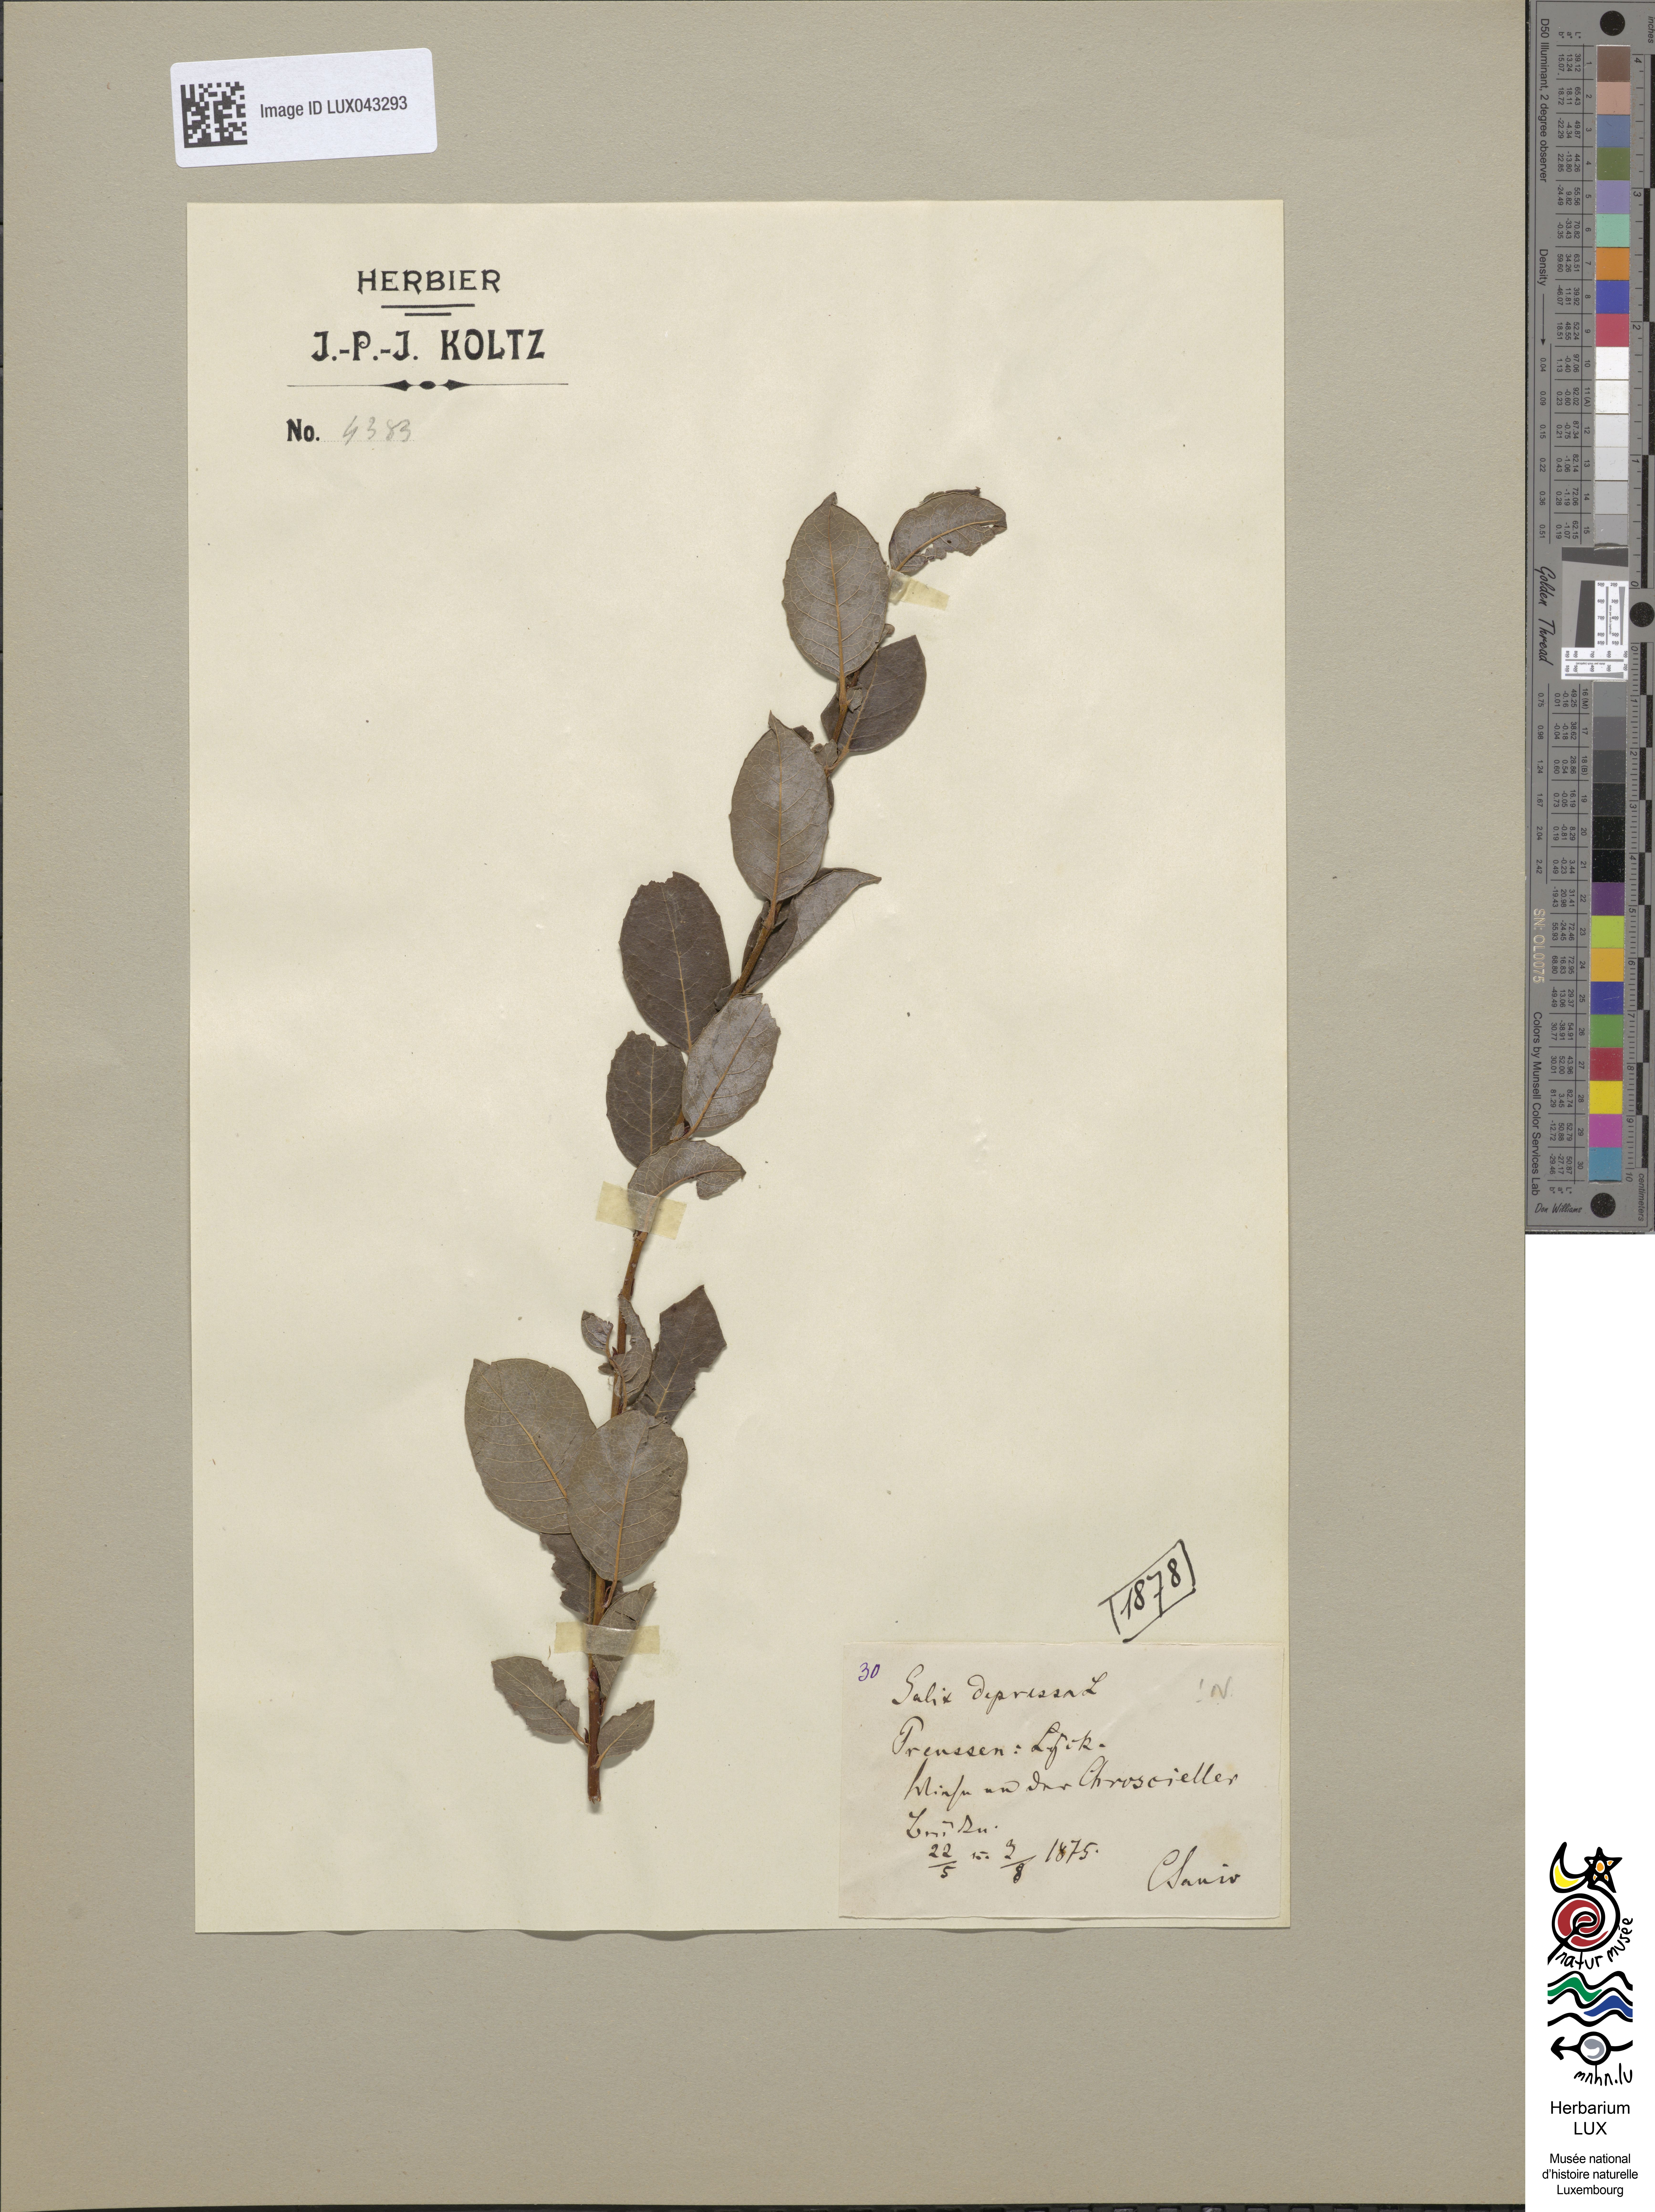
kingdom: Plantae
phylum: Tracheophyta
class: Magnoliopsida
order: Malpighiales
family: Salicaceae
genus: Salix
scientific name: Salix starkeana
